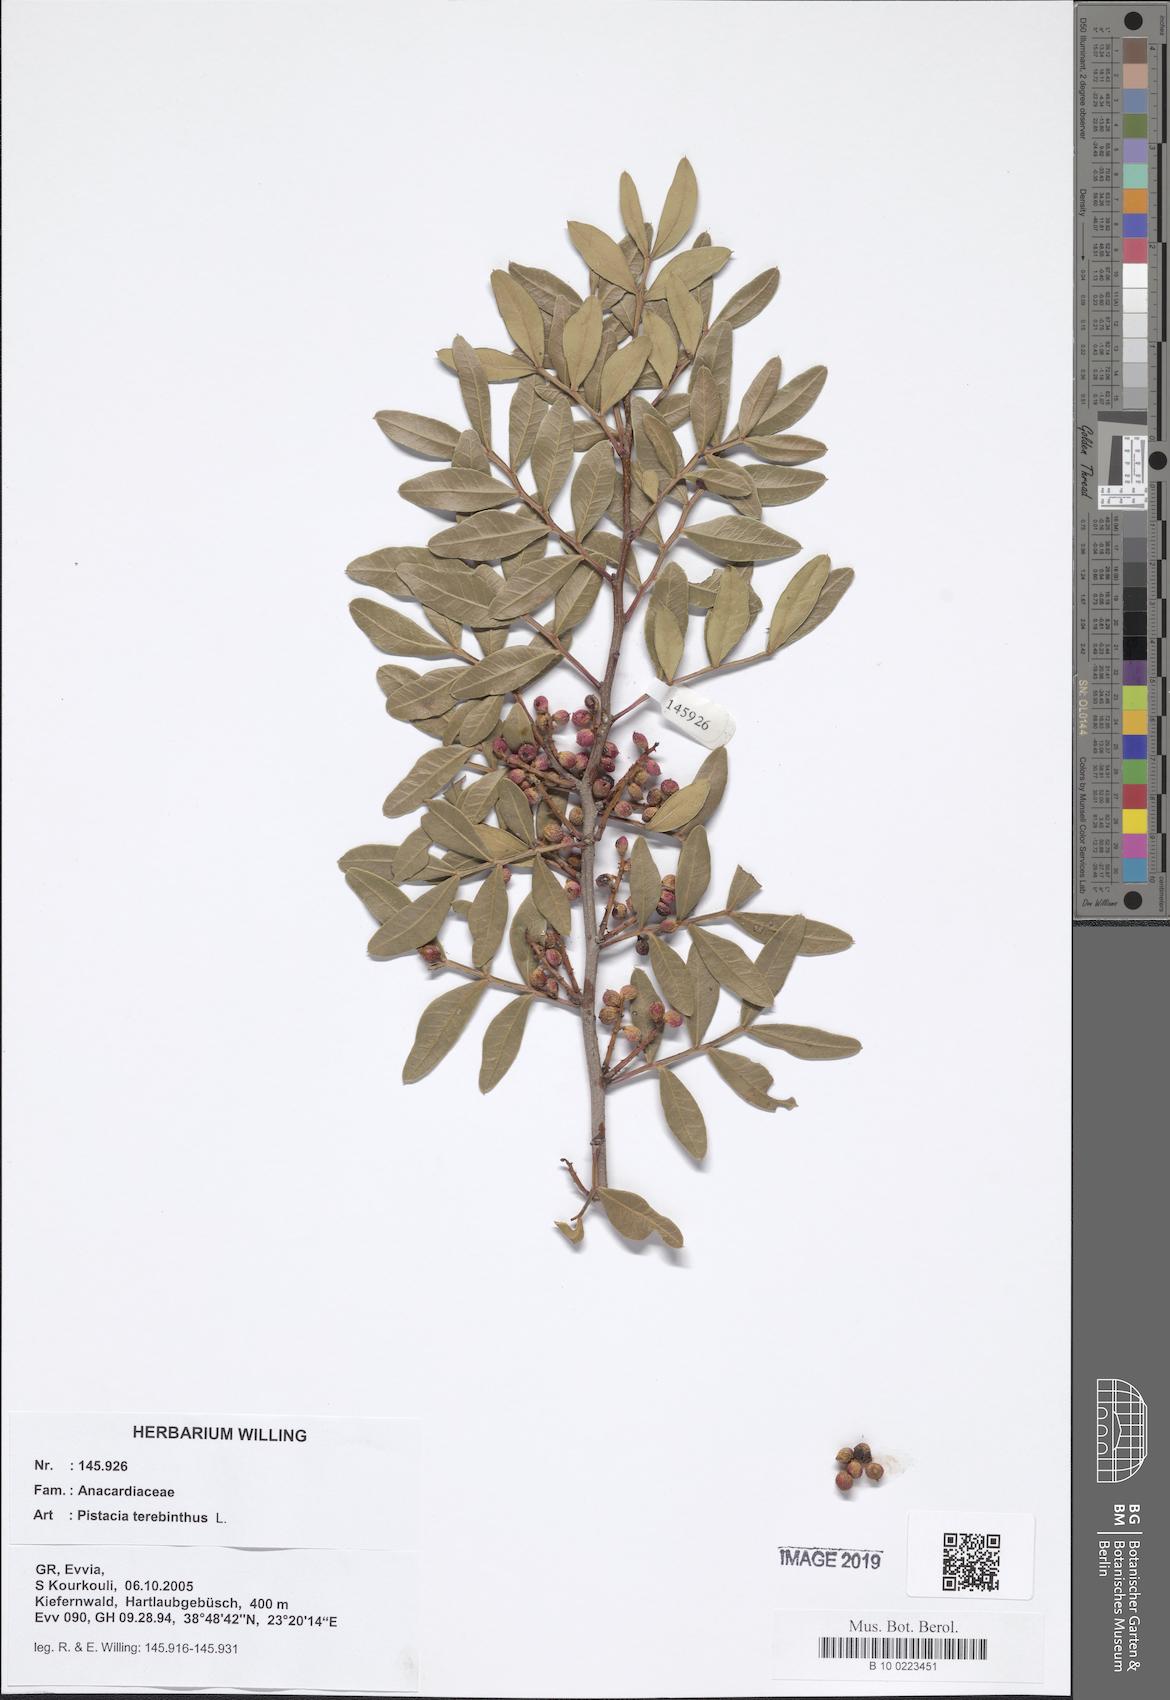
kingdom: Plantae
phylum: Tracheophyta
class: Magnoliopsida
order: Sapindales
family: Anacardiaceae
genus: Pistacia
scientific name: Pistacia terebinthus
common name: Terebinth
